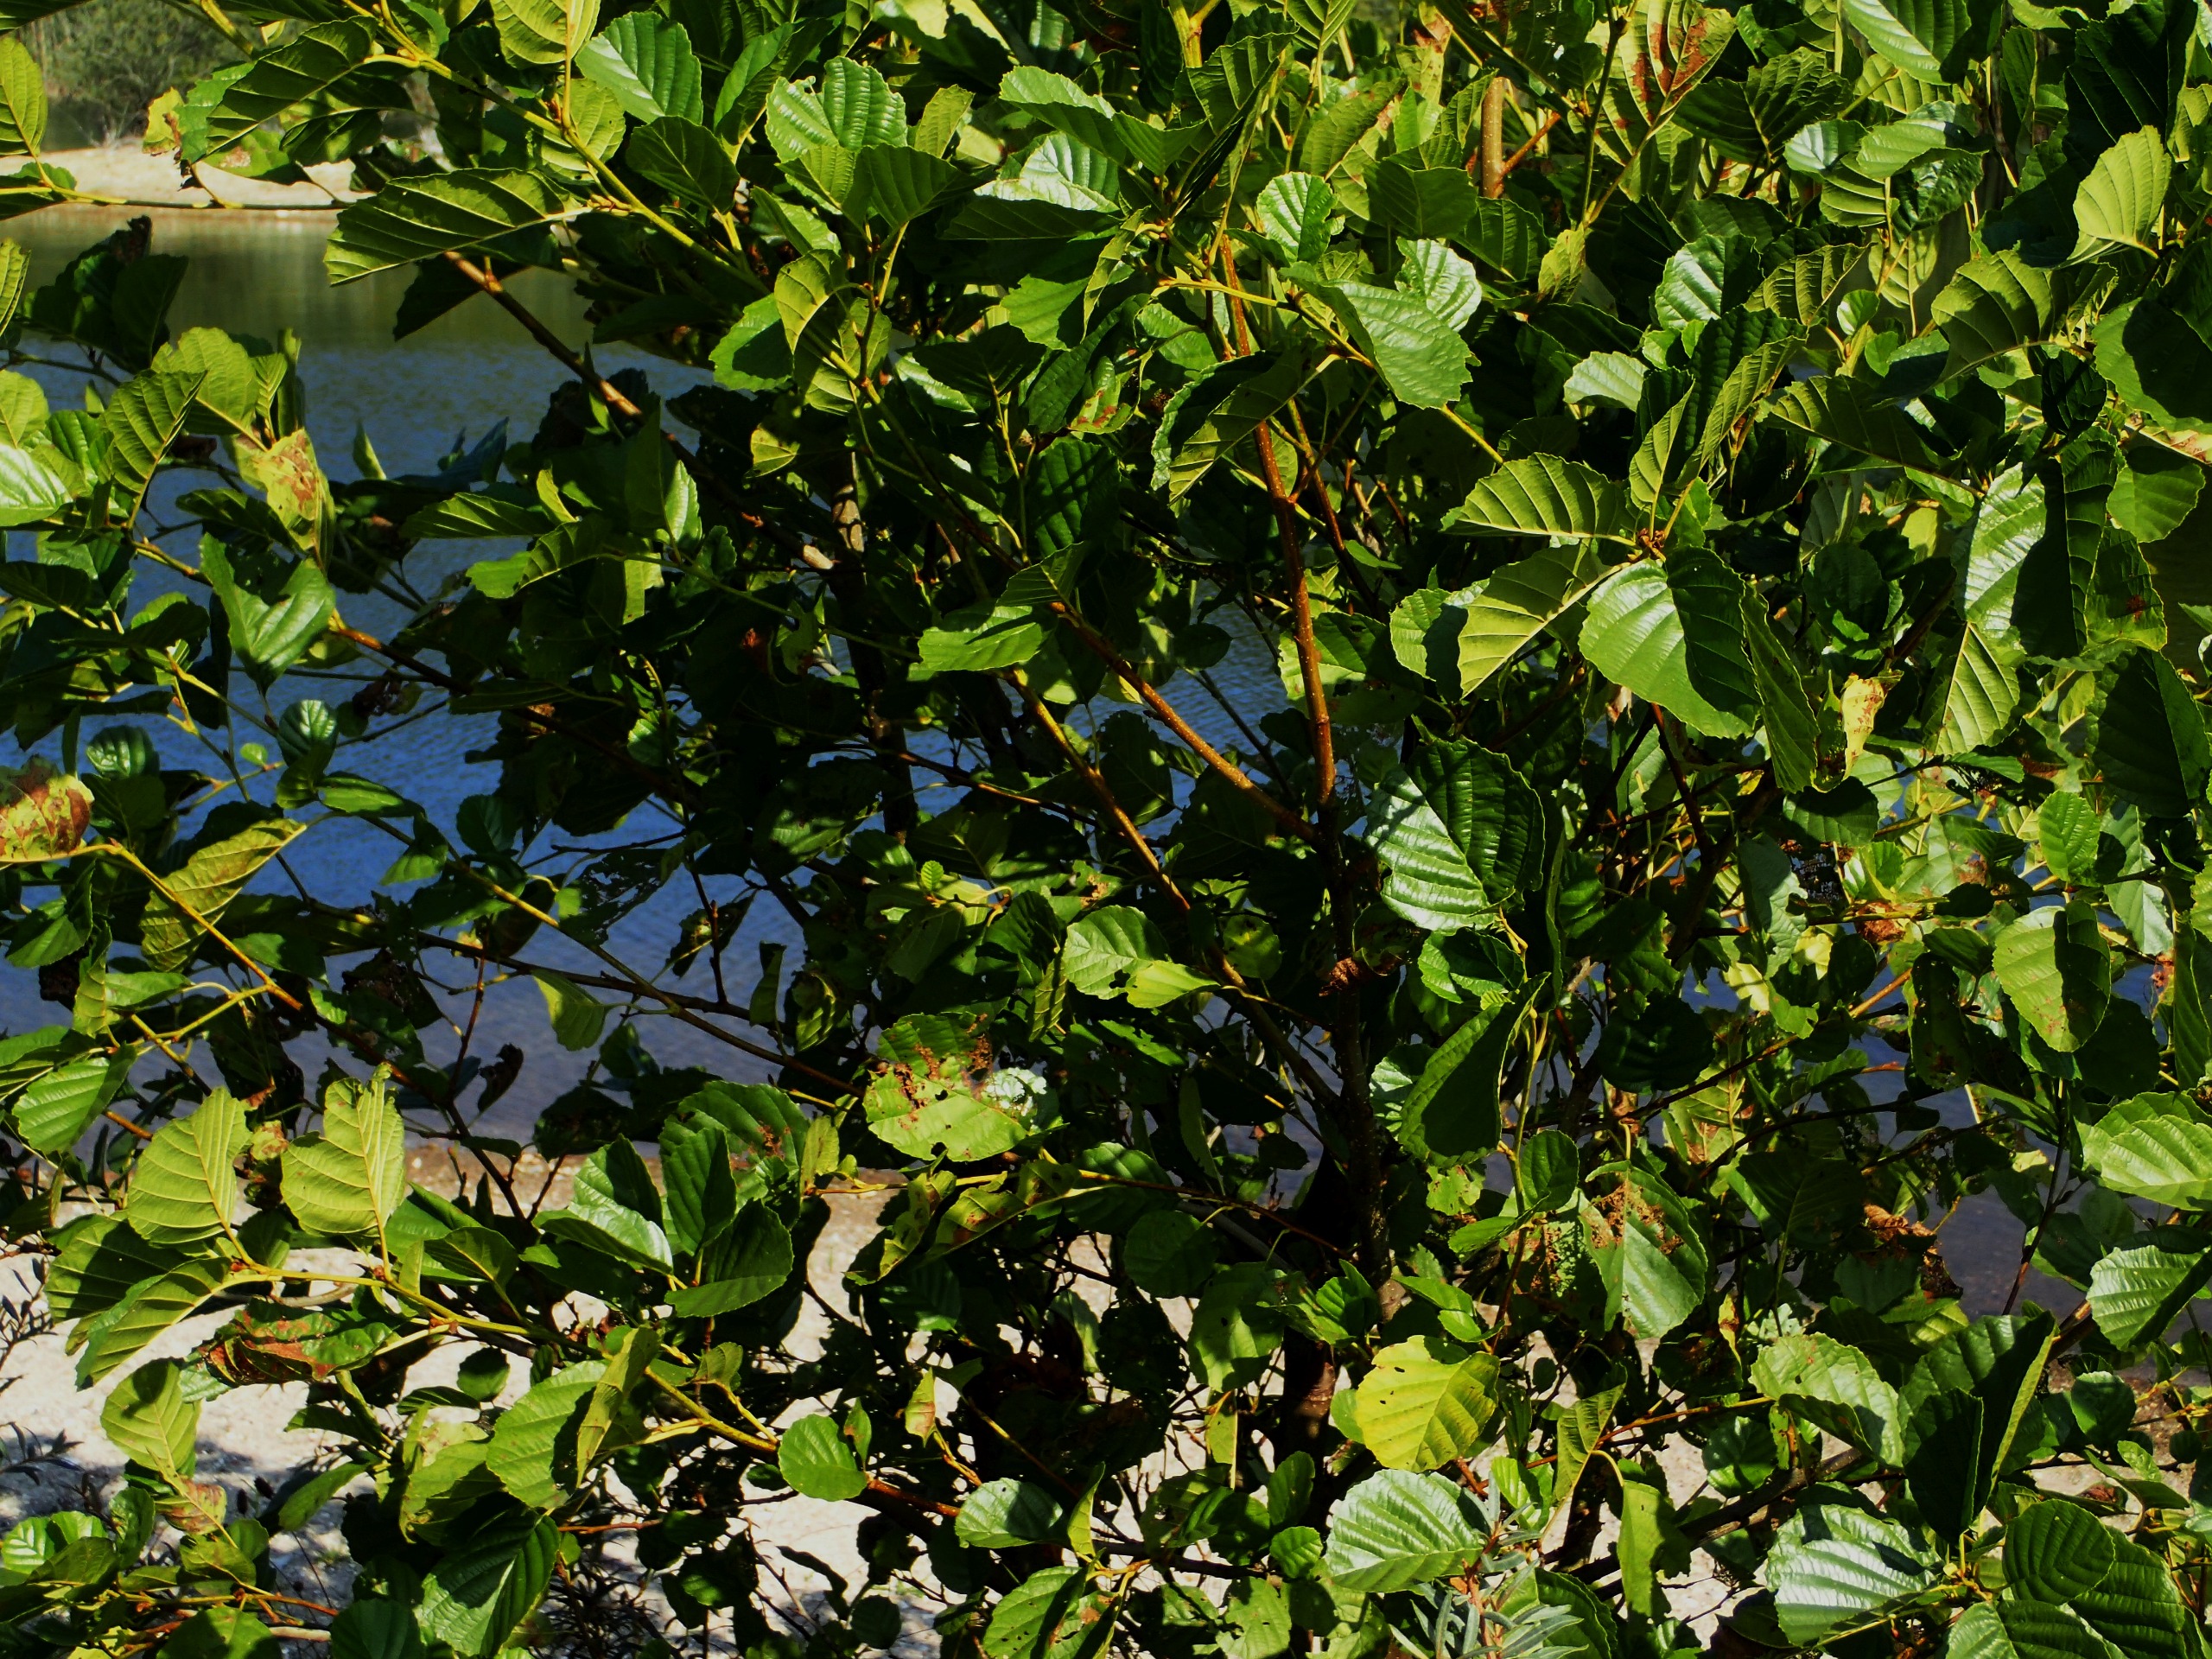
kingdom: Plantae
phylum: Tracheophyta
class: Magnoliopsida
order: Fagales
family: Betulaceae
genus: Alnus
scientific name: Alnus glutinosa
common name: Rød-el
